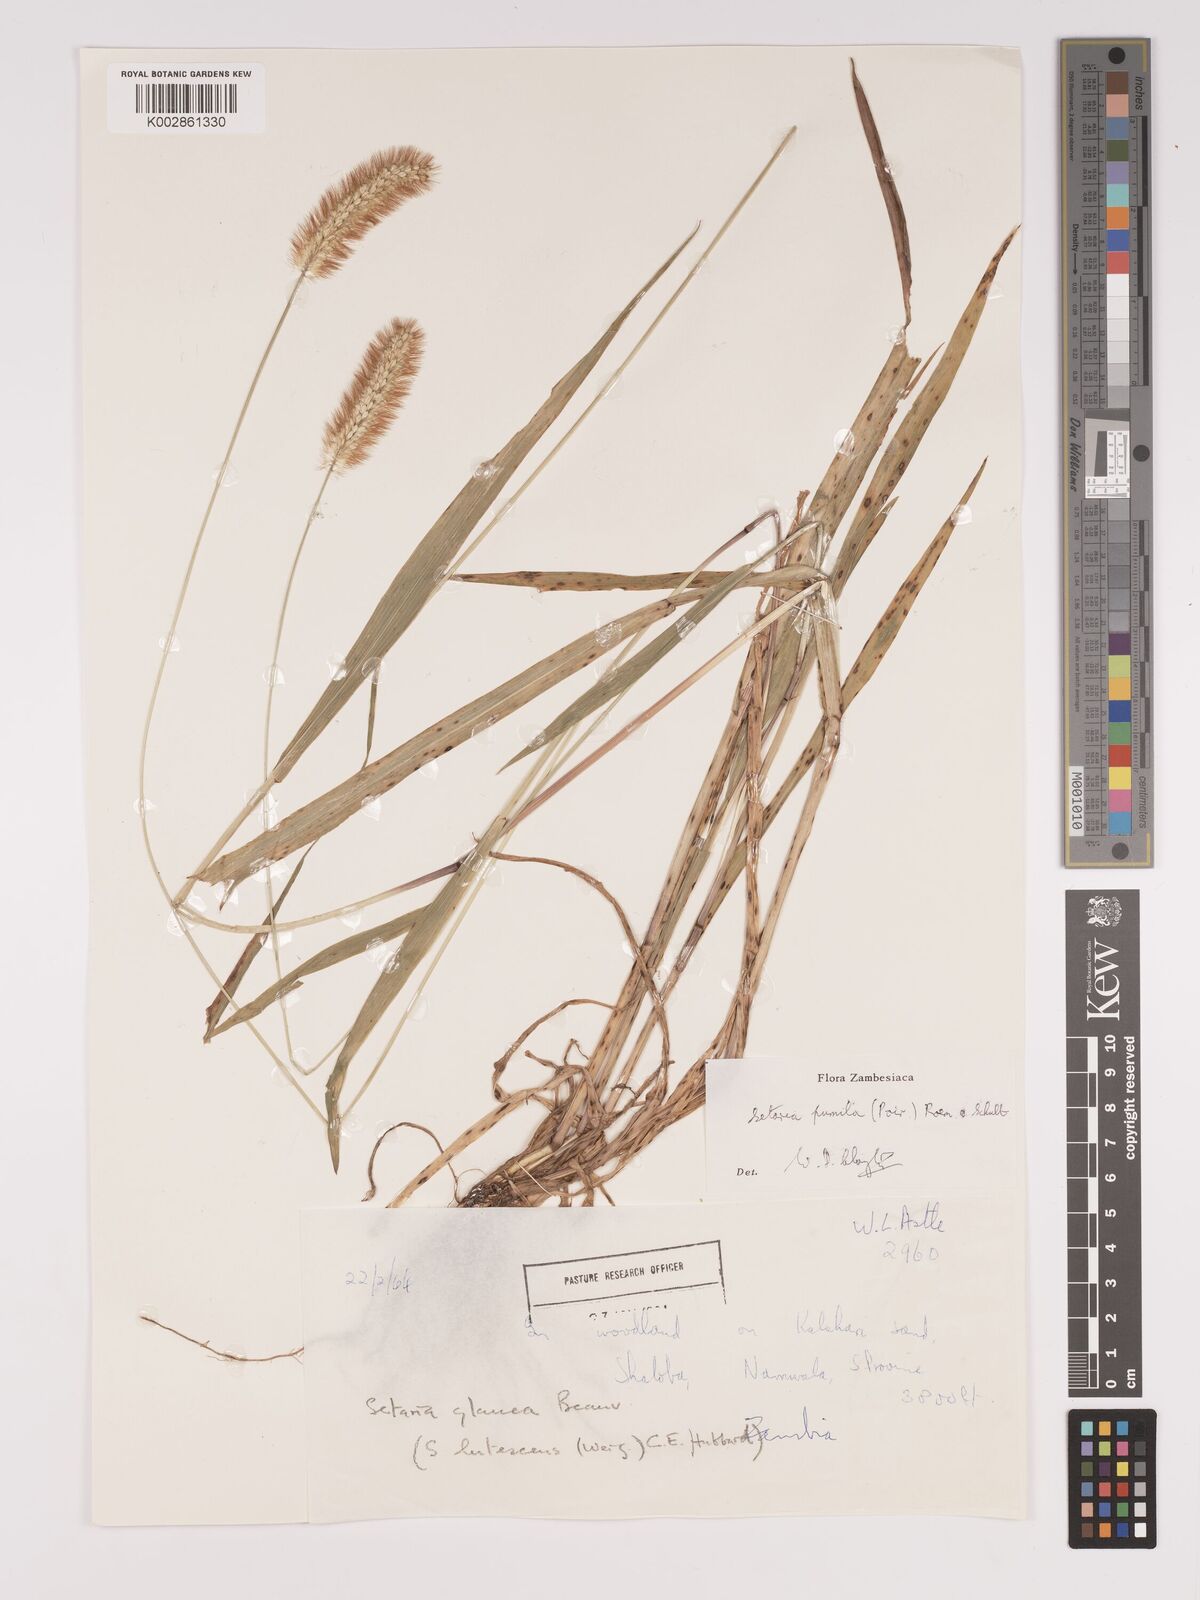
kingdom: Plantae
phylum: Tracheophyta
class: Liliopsida
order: Poales
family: Poaceae
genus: Setaria
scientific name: Setaria pumila
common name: Yellow bristle-grass
